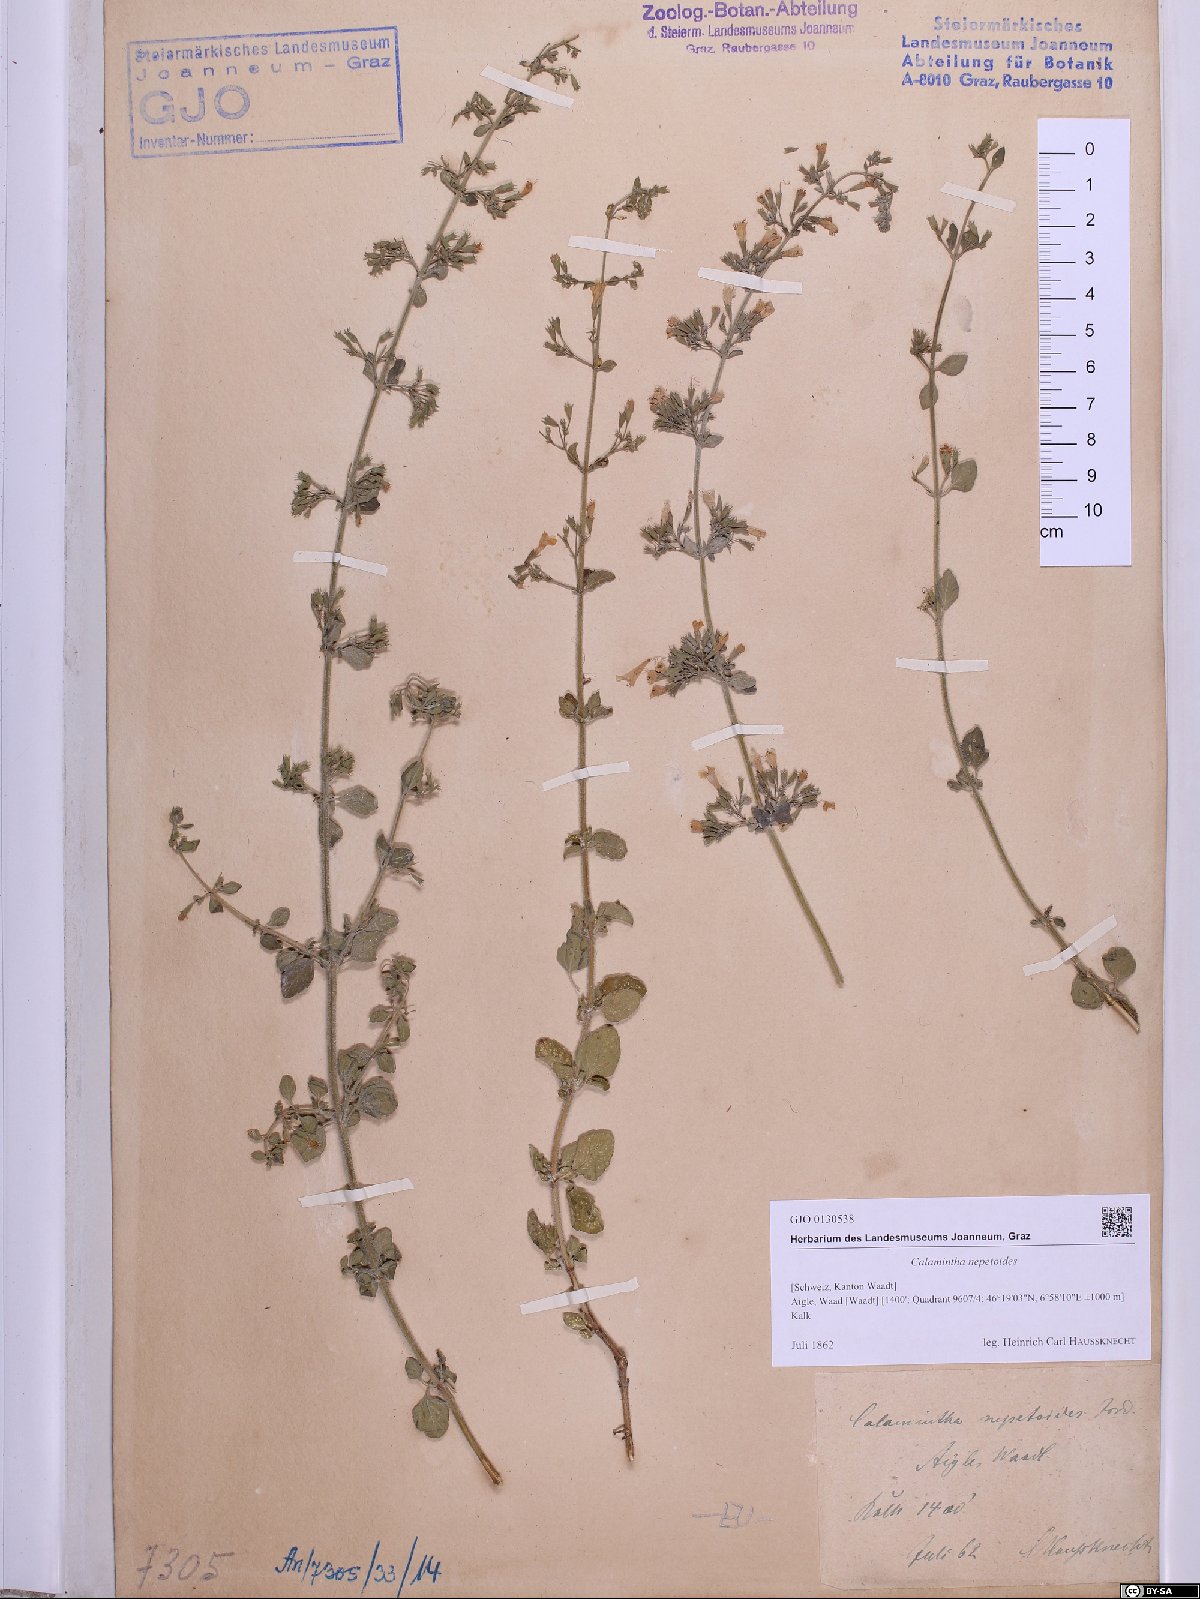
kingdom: Plantae
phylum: Tracheophyta
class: Magnoliopsida
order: Lamiales
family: Lamiaceae
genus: Clinopodium
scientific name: Clinopodium nepeta
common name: Lesser calamint
